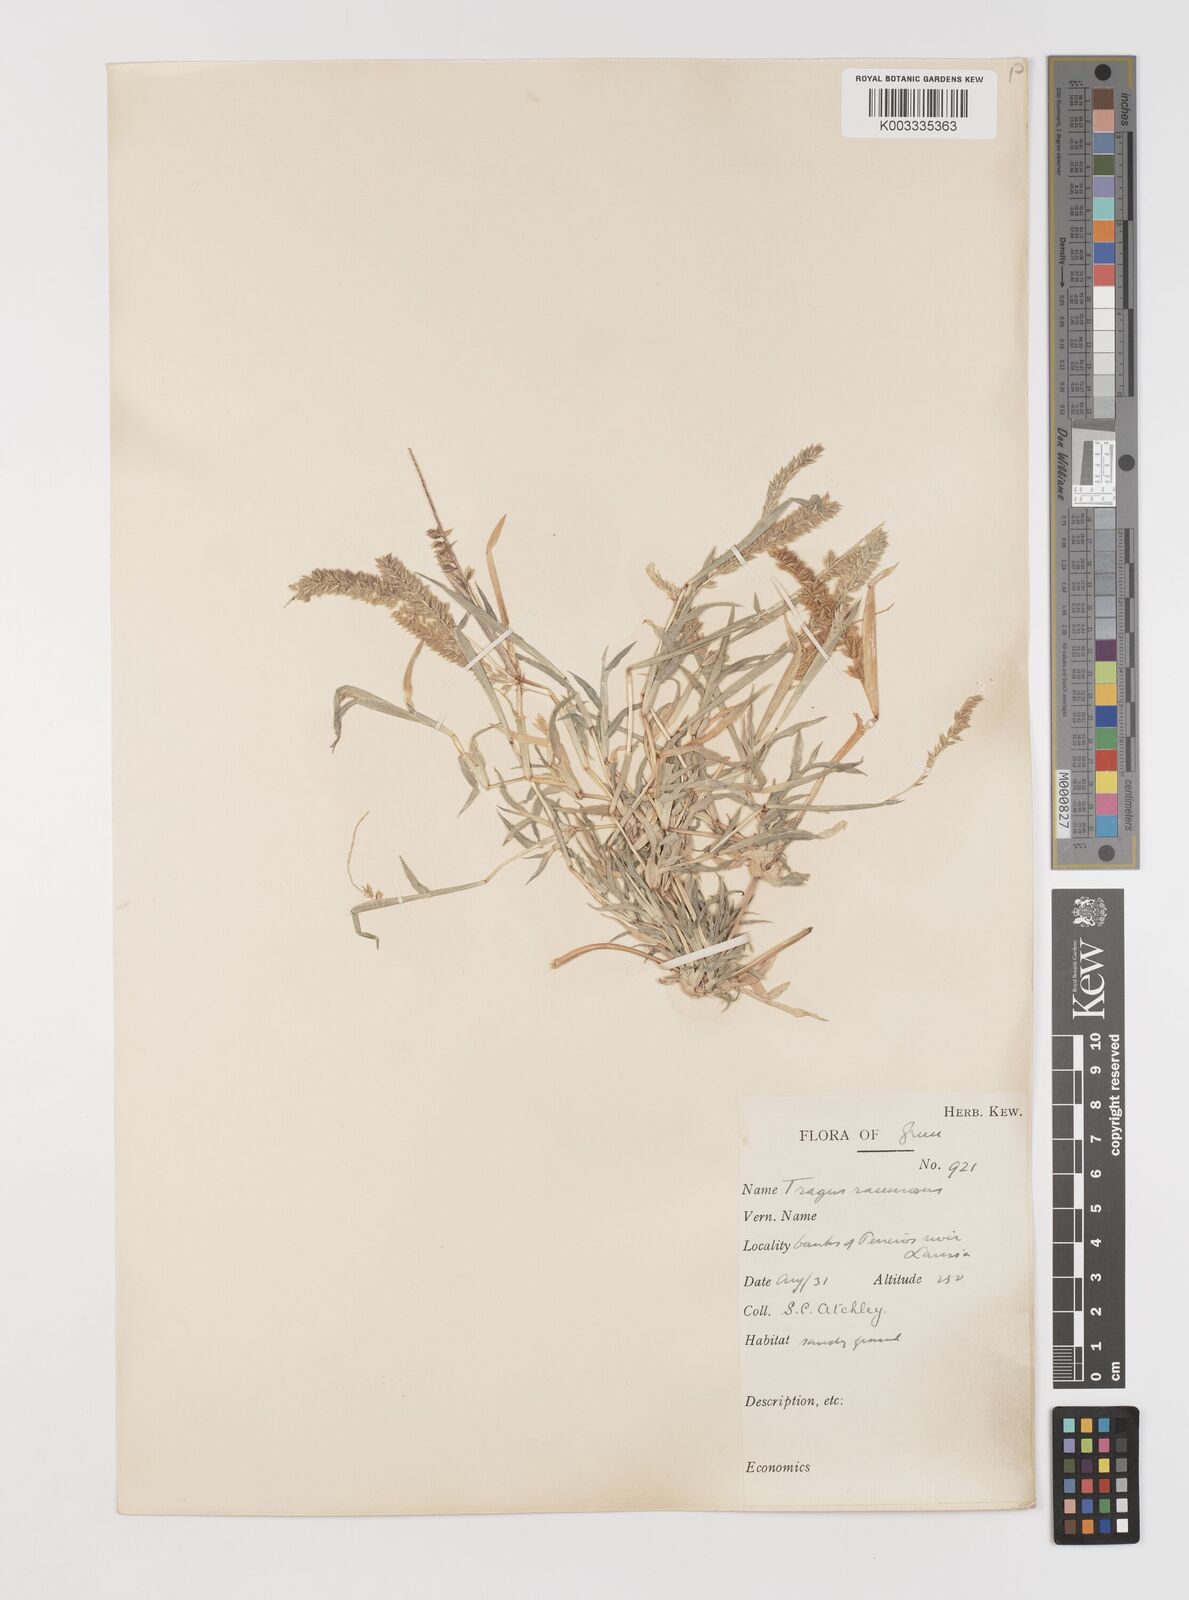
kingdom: Plantae
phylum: Tracheophyta
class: Liliopsida
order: Poales
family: Poaceae
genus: Tragus
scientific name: Tragus racemosus
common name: European bur-grass
